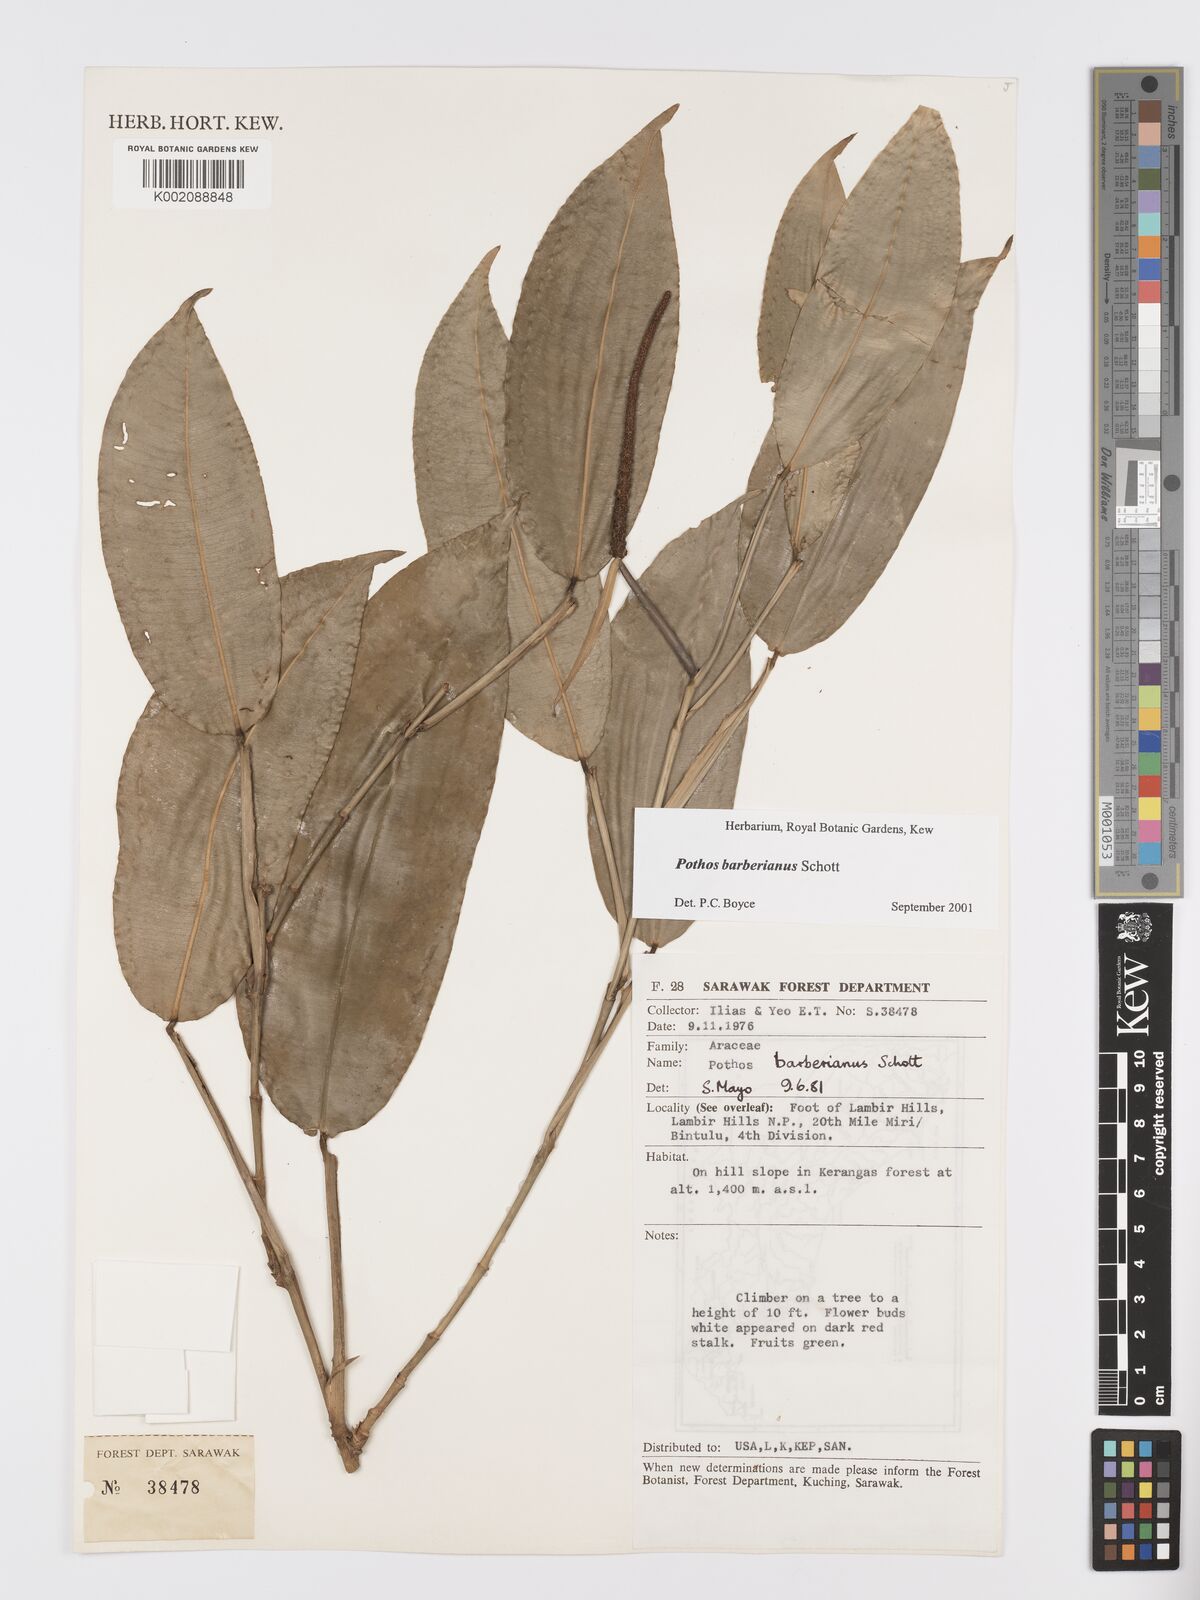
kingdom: Plantae
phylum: Tracheophyta
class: Liliopsida
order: Alismatales
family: Araceae
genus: Pothos
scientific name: Pothos barberianus
